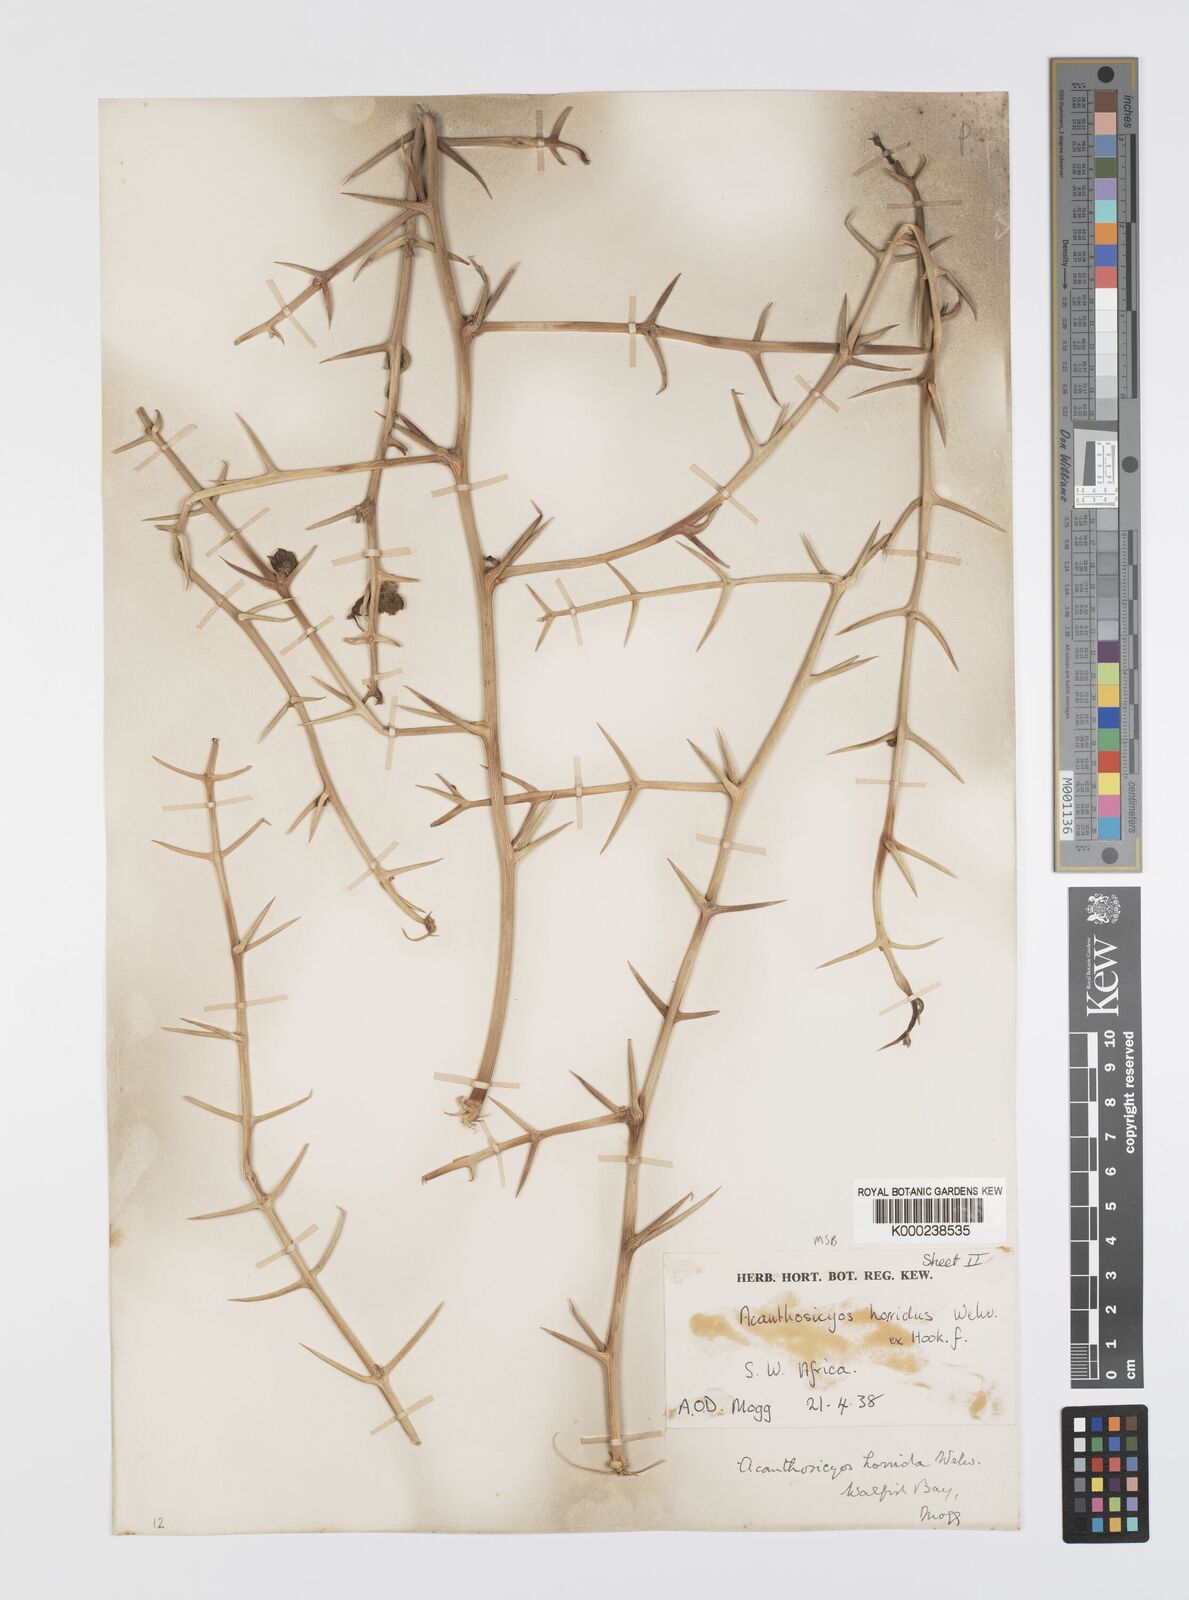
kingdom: Plantae
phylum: Tracheophyta
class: Magnoliopsida
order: Cucurbitales
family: Cucurbitaceae
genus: Acanthosicyos
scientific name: Acanthosicyos horridus
